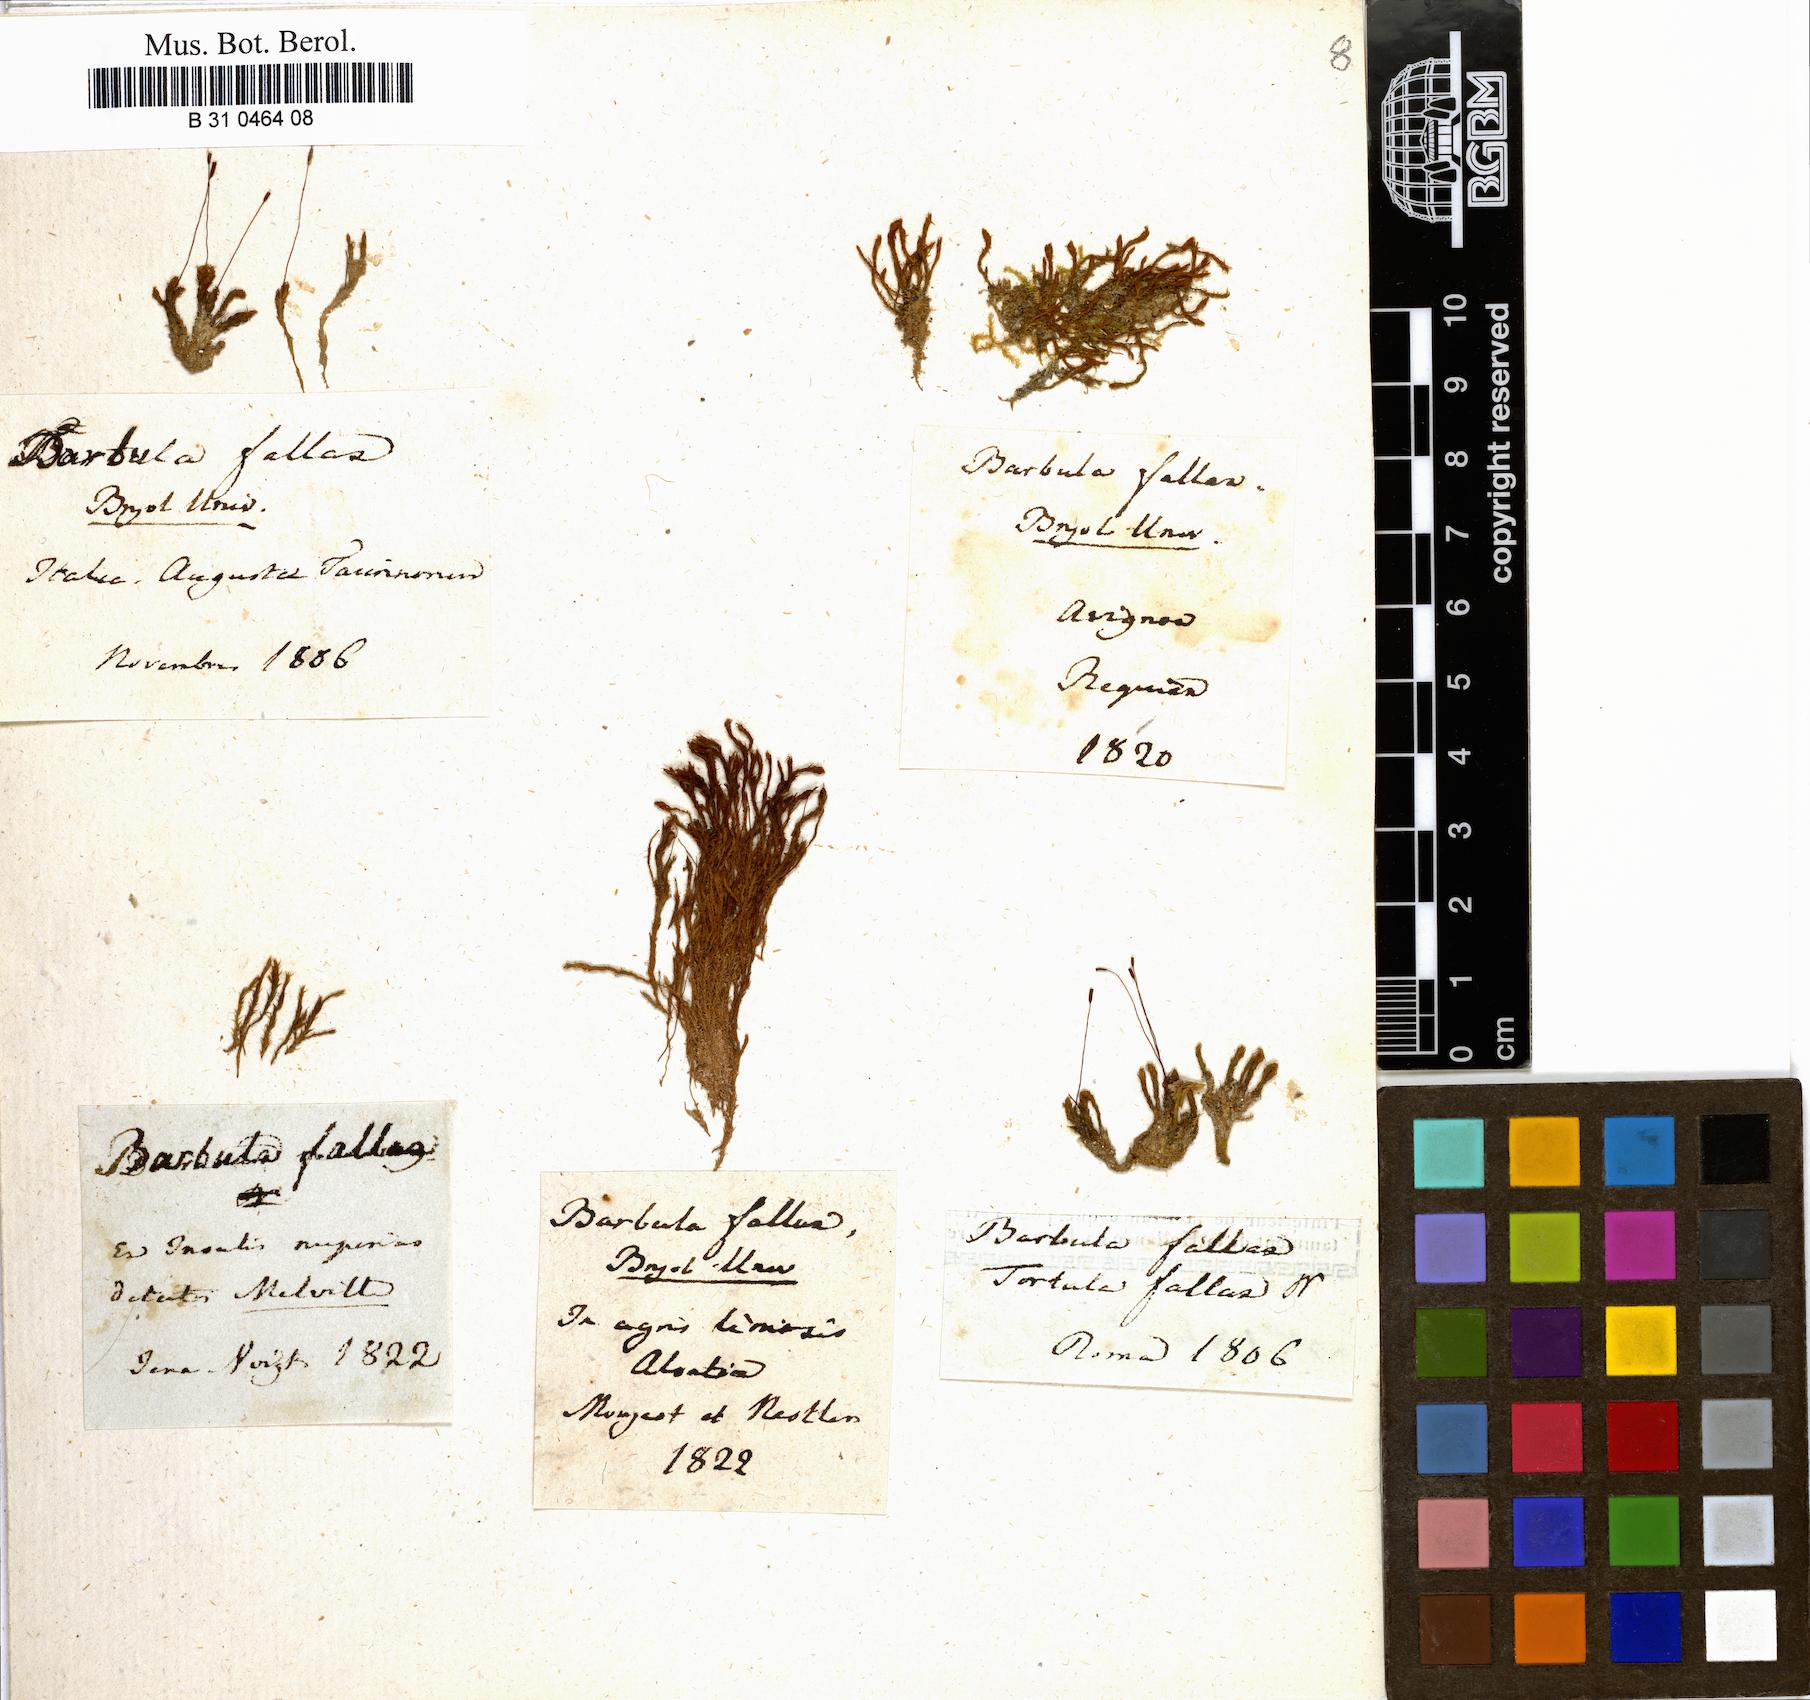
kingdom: Plantae
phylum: Bryophyta
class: Bryopsida
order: Pottiales
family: Pottiaceae
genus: Geheebia
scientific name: Geheebia fallax
